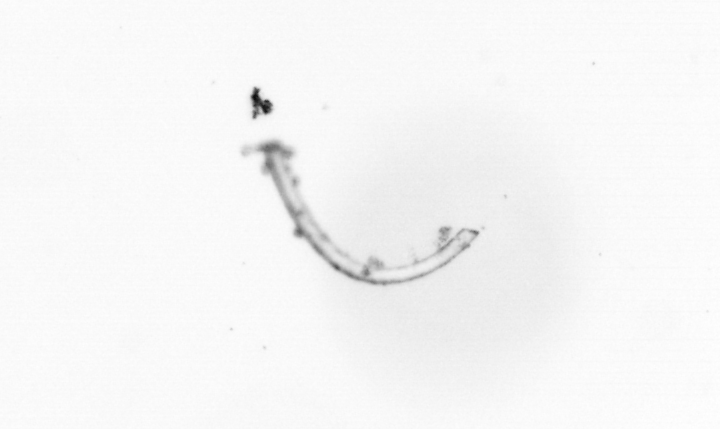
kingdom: Chromista
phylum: Ochrophyta
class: Bacillariophyceae
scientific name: Bacillariophyceae
